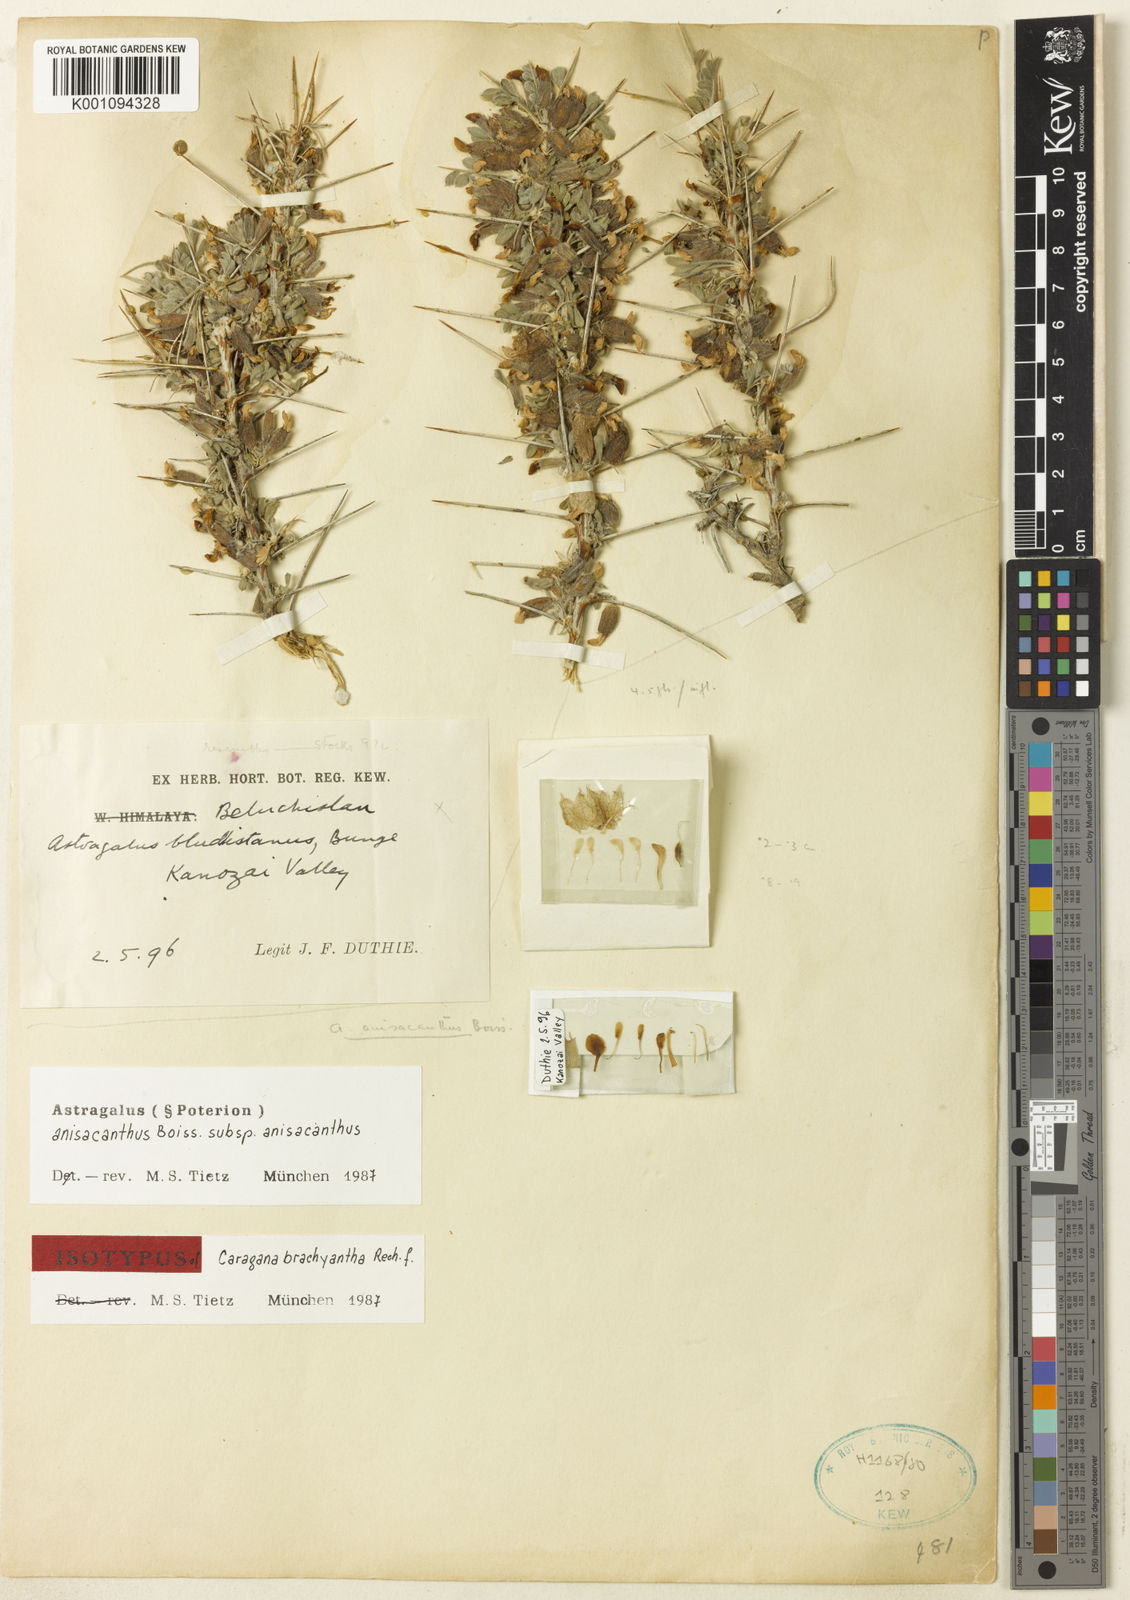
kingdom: Plantae
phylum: Tracheophyta
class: Magnoliopsida
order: Fabales
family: Fabaceae
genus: Astragalus
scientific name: Astragalus anisacanthus
